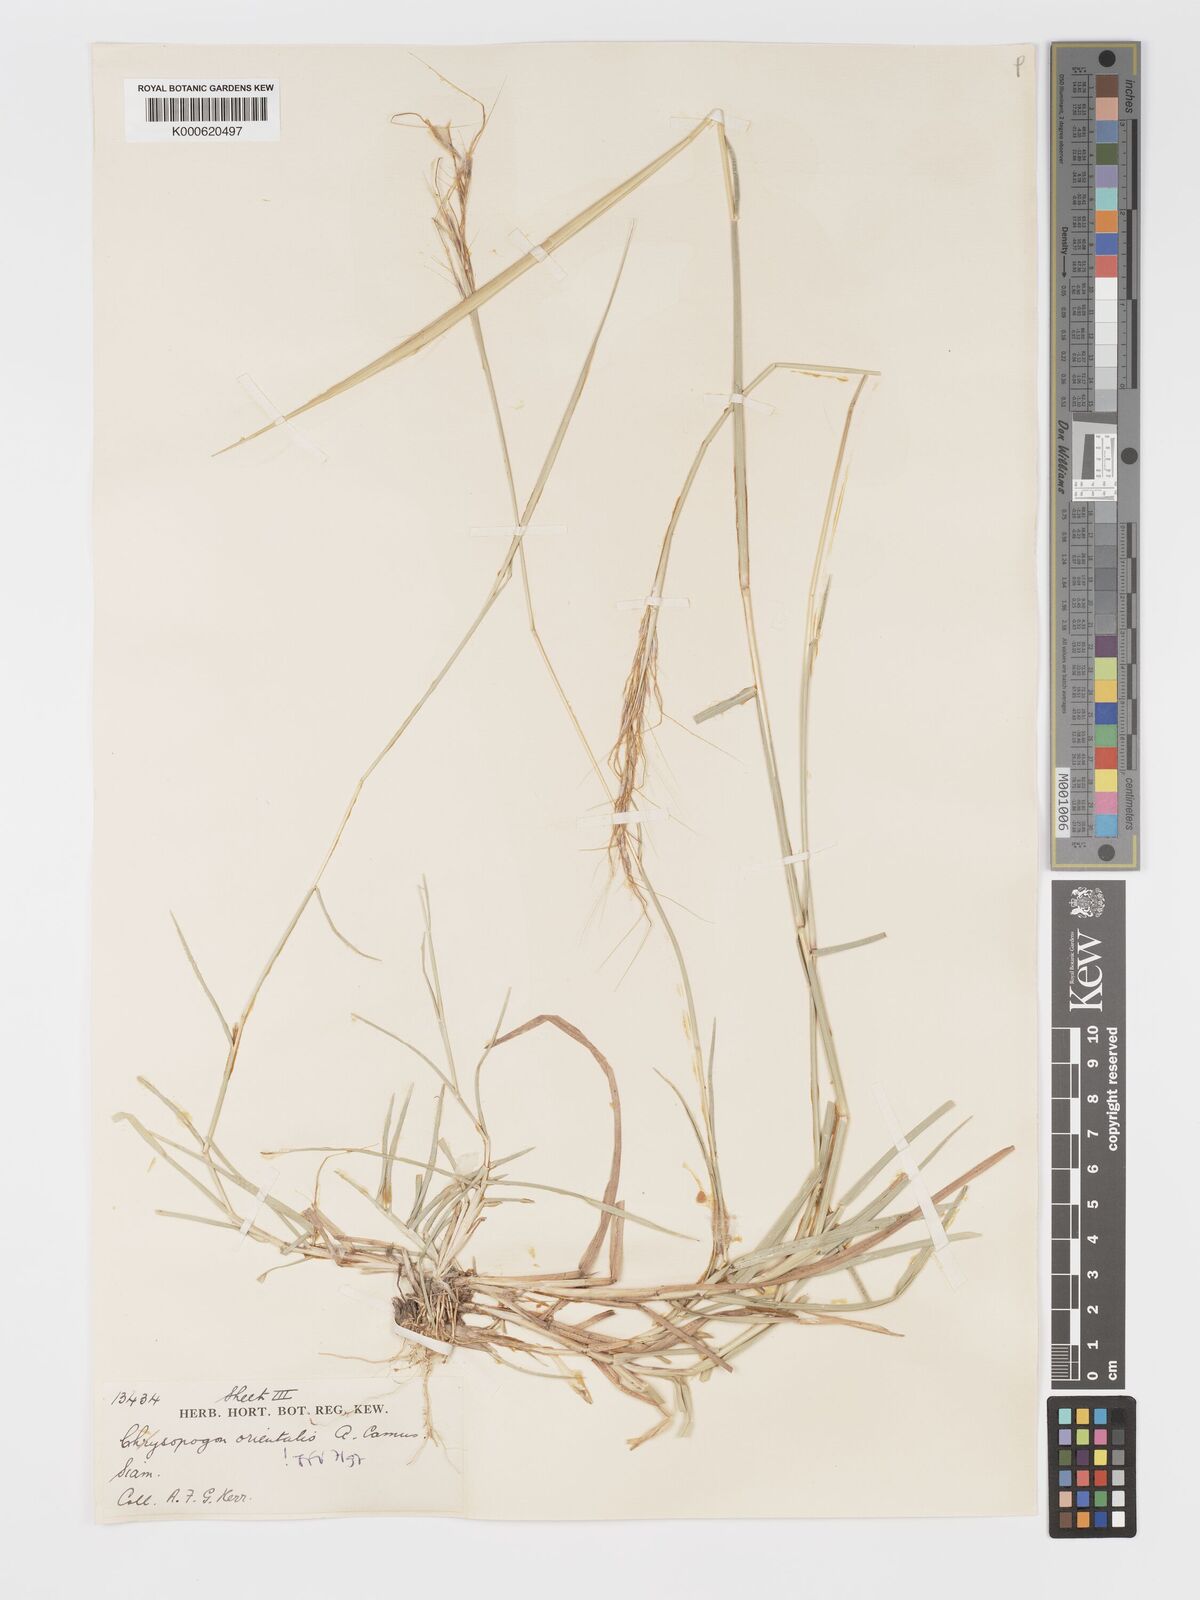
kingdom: Plantae
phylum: Tracheophyta
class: Liliopsida
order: Poales
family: Poaceae
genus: Chrysopogon
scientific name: Chrysopogon orientalis
